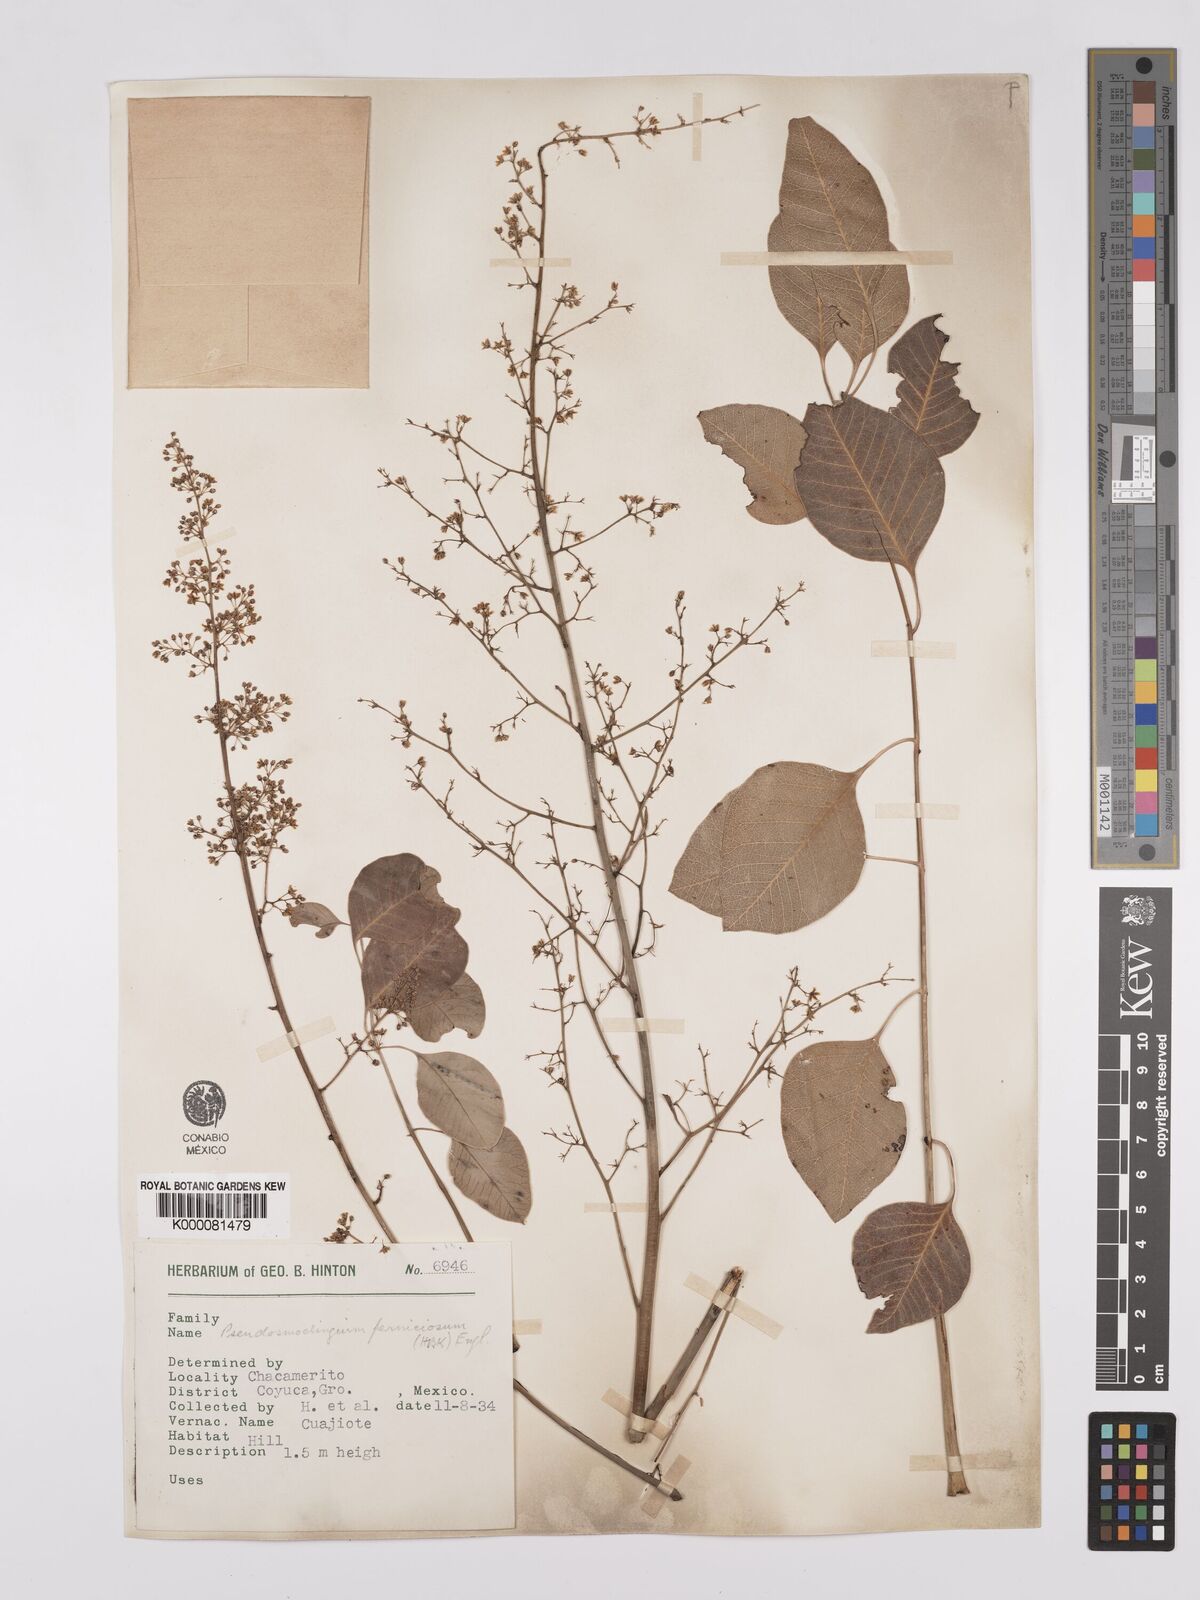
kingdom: Plantae
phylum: Tracheophyta
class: Magnoliopsida
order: Sapindales
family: Anacardiaceae
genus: Pseudosmodingium
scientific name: Pseudosmodingium perniciosum
